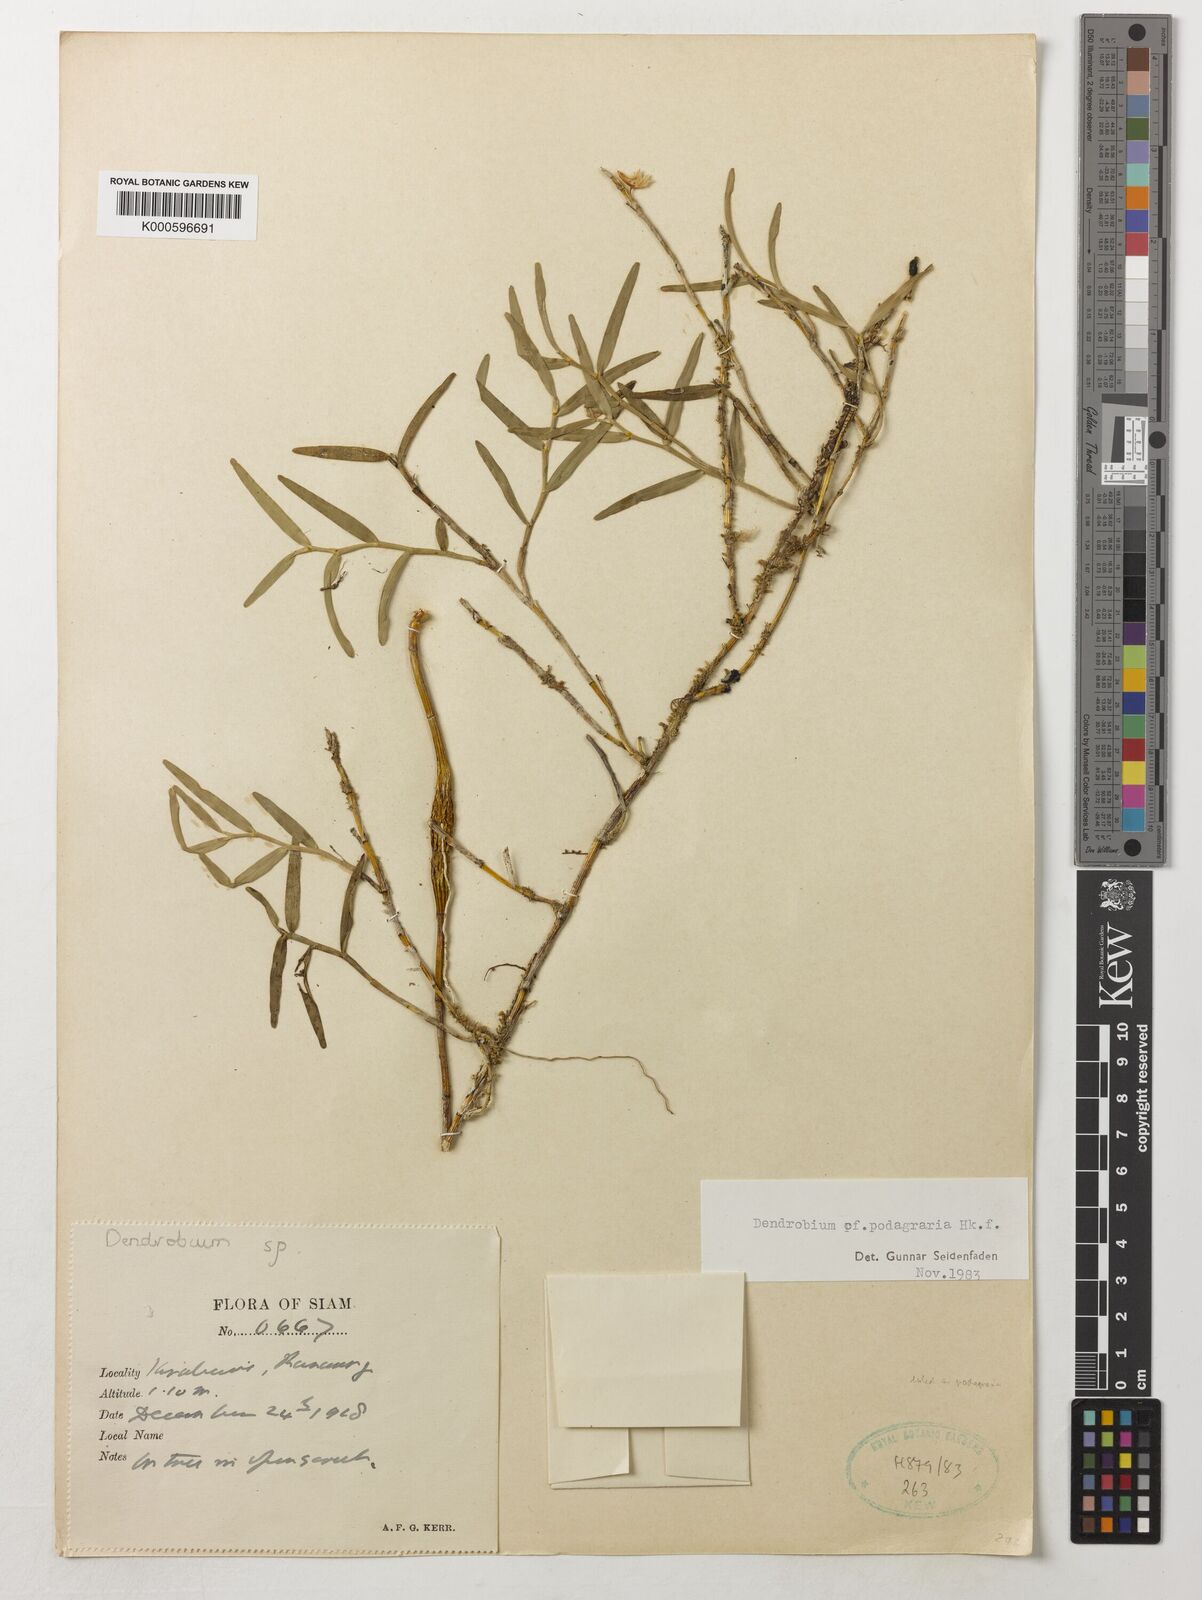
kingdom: Plantae
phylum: Tracheophyta
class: Liliopsida
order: Asparagales
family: Orchidaceae
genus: Dendrobium
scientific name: Dendrobium angulatum
